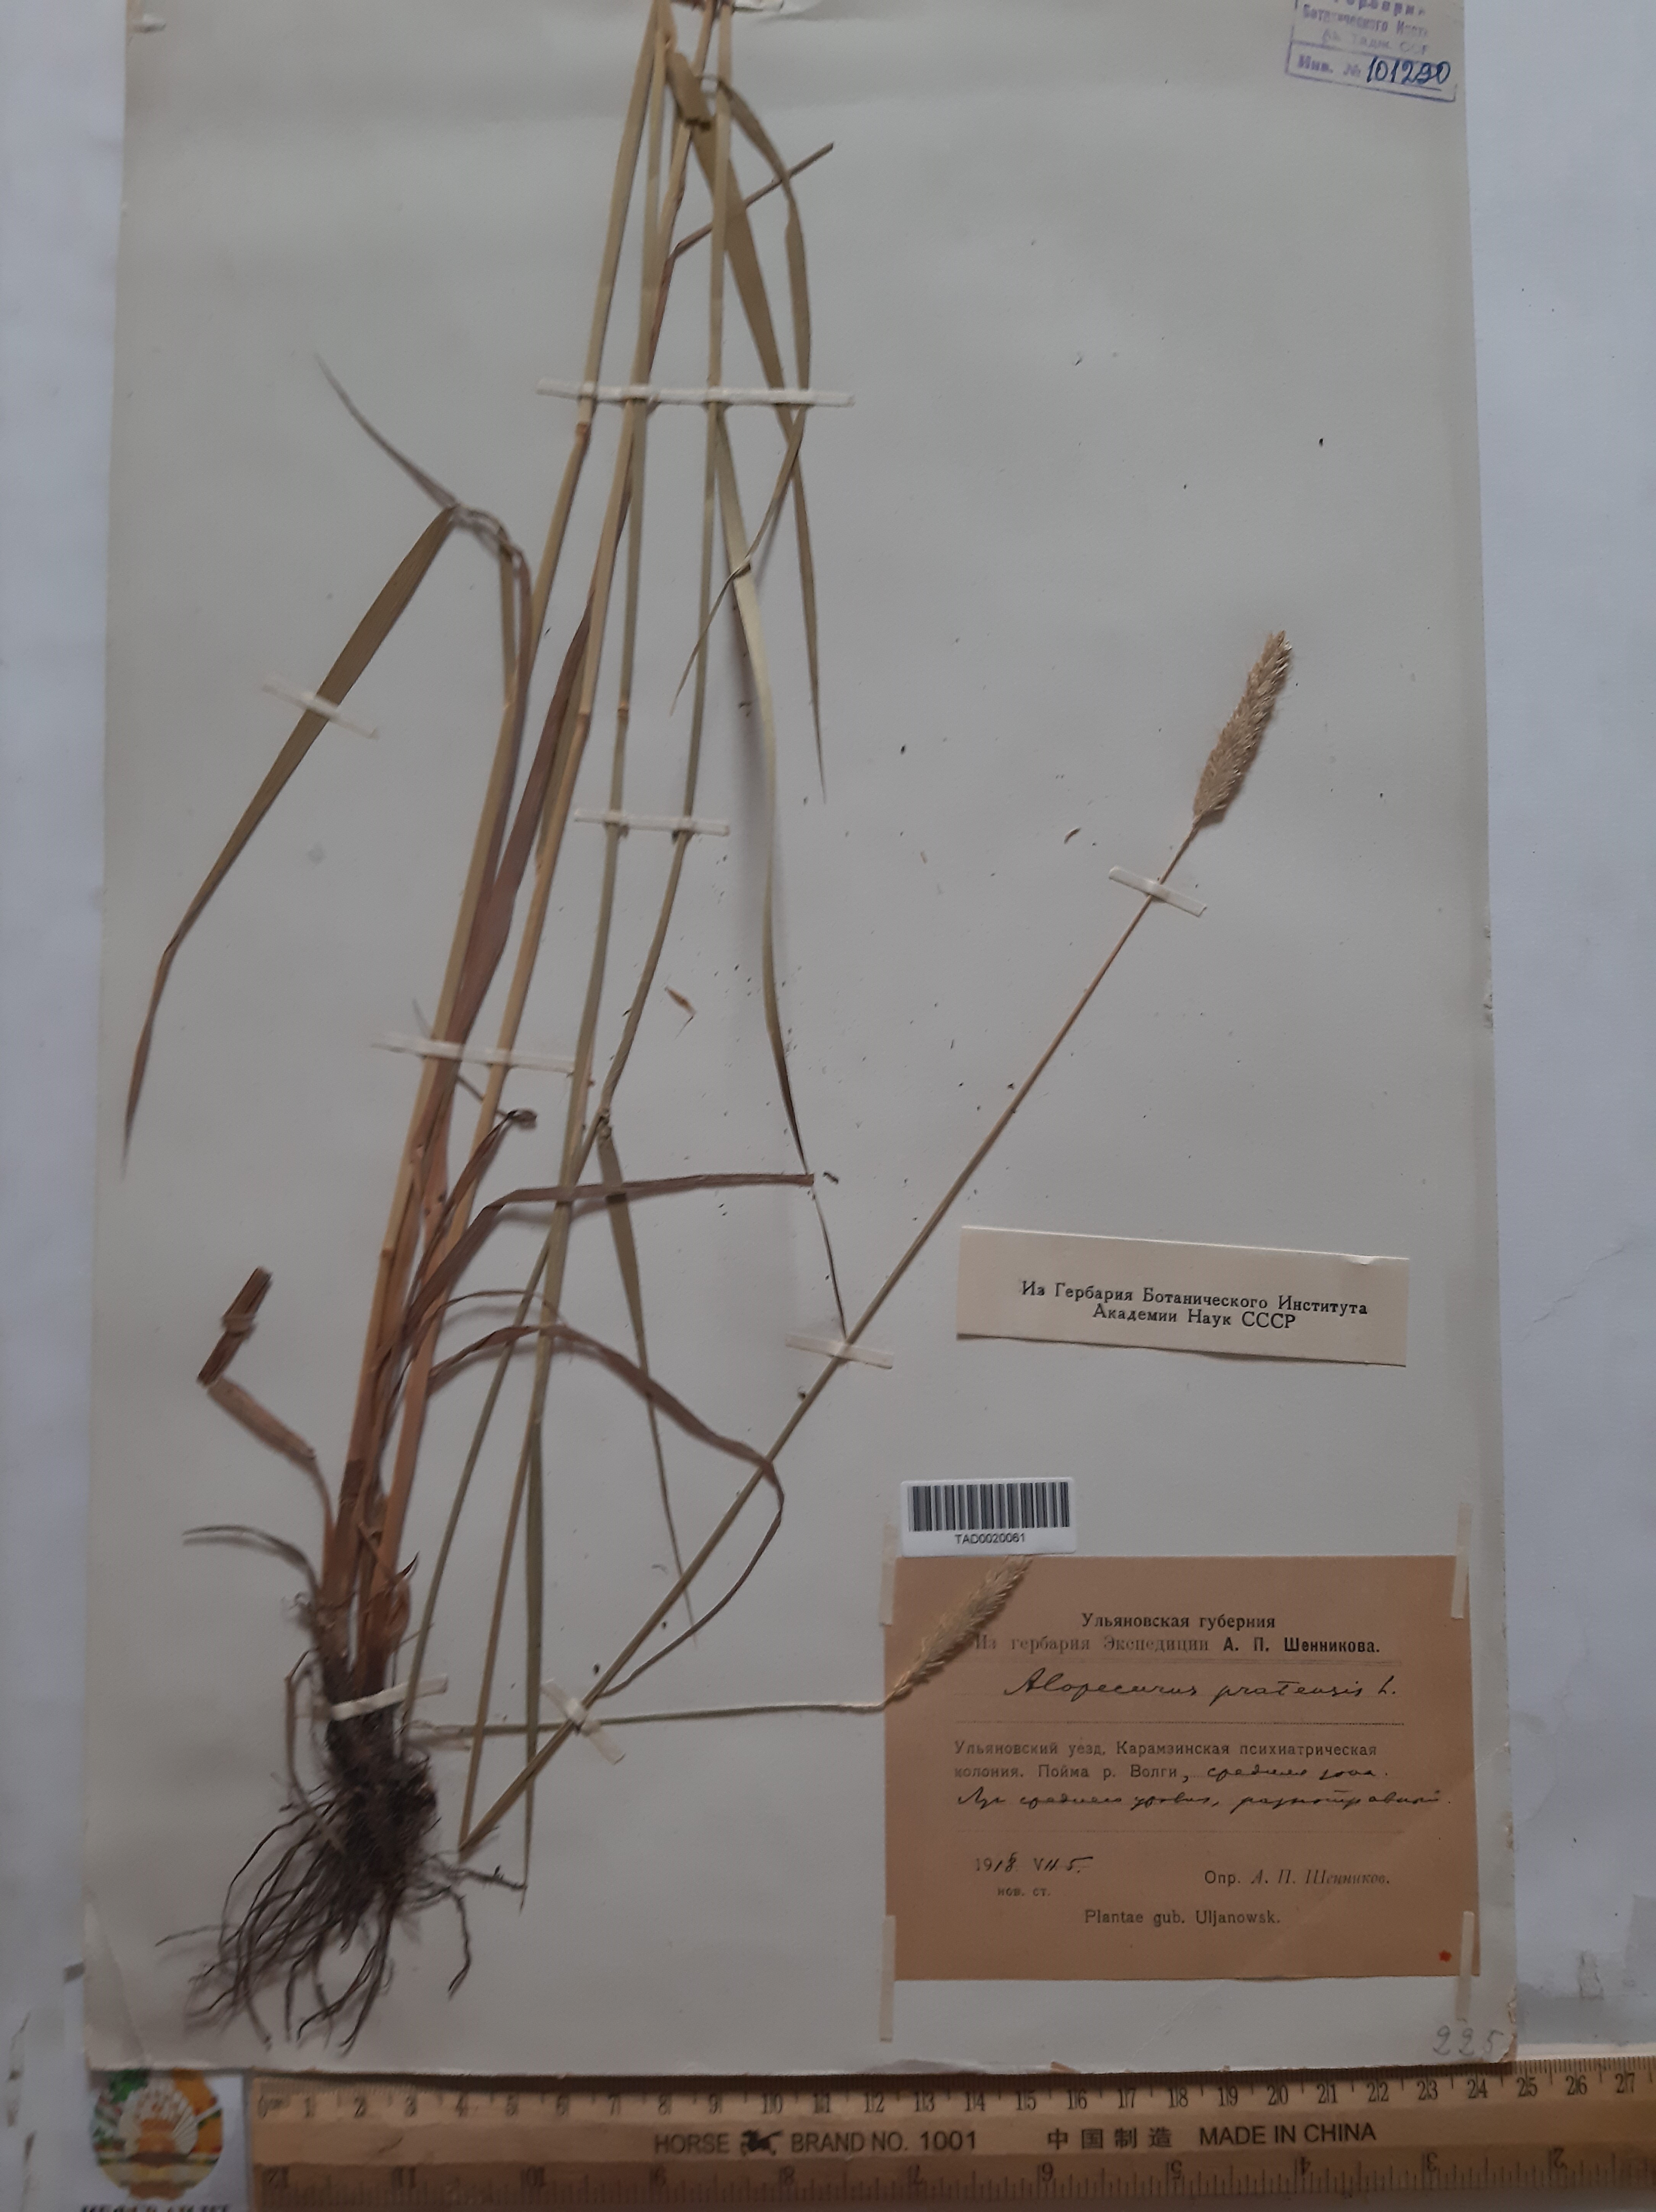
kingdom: Plantae
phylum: Tracheophyta
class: Liliopsida
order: Poales
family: Poaceae
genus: Alopecurus
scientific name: Alopecurus pratensis
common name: Meadow foxtail
